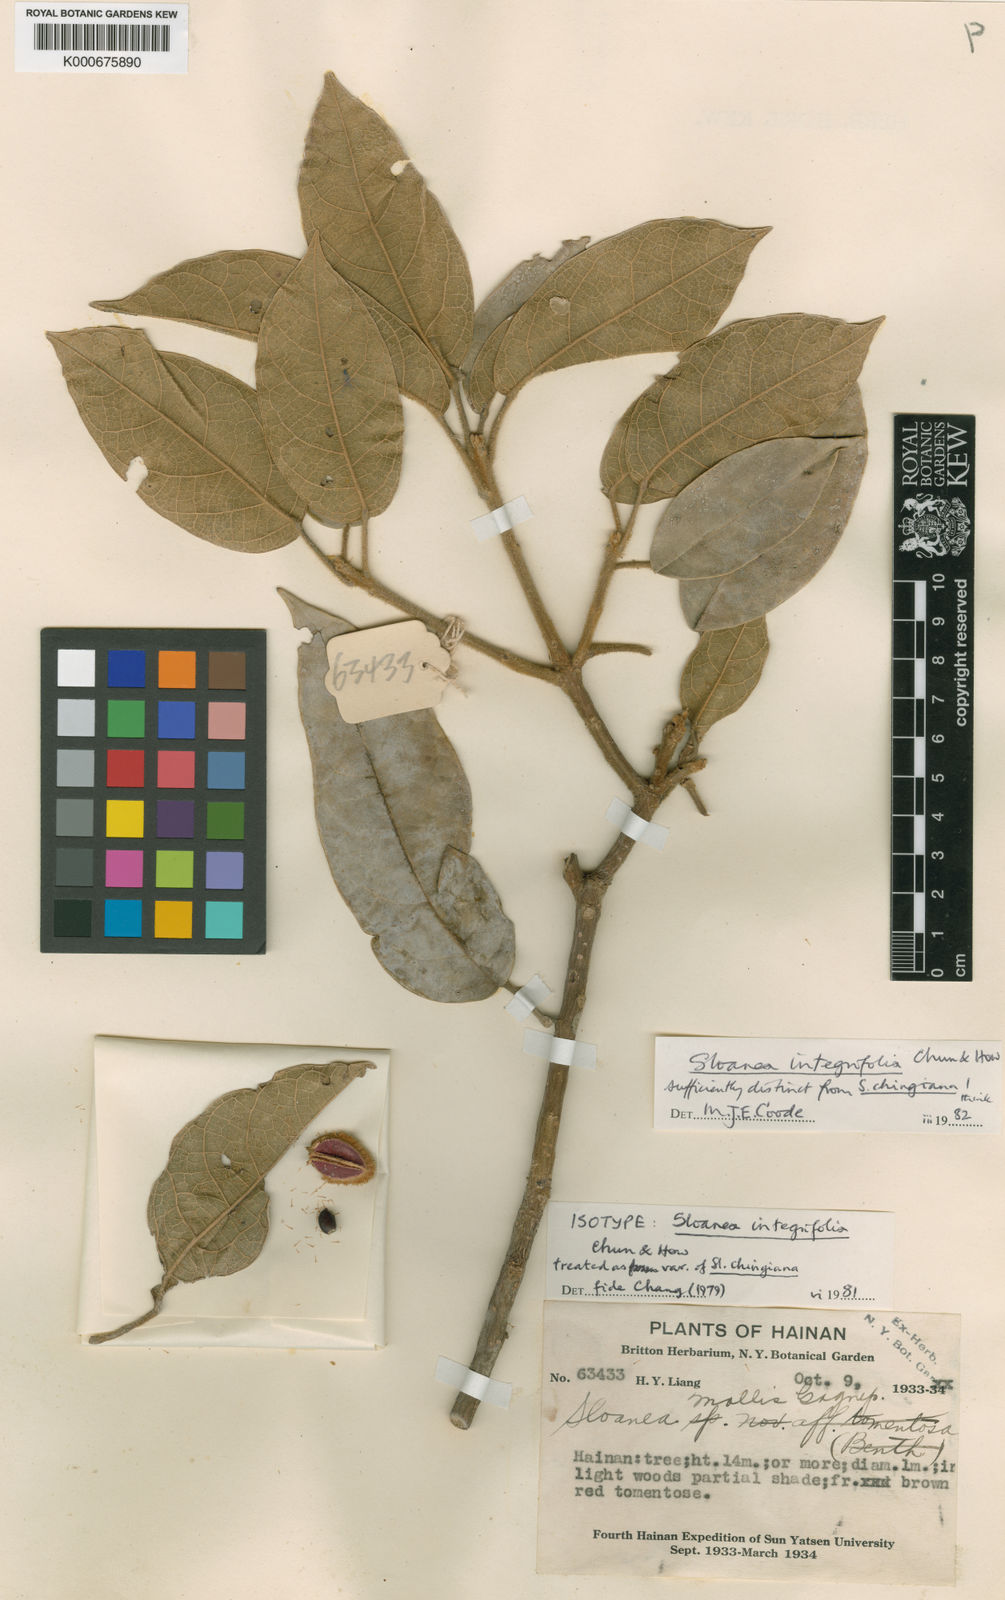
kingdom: Plantae
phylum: Tracheophyta
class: Magnoliopsida
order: Oxalidales
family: Elaeocarpaceae
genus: Sloanea
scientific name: Sloanea integrifolia
